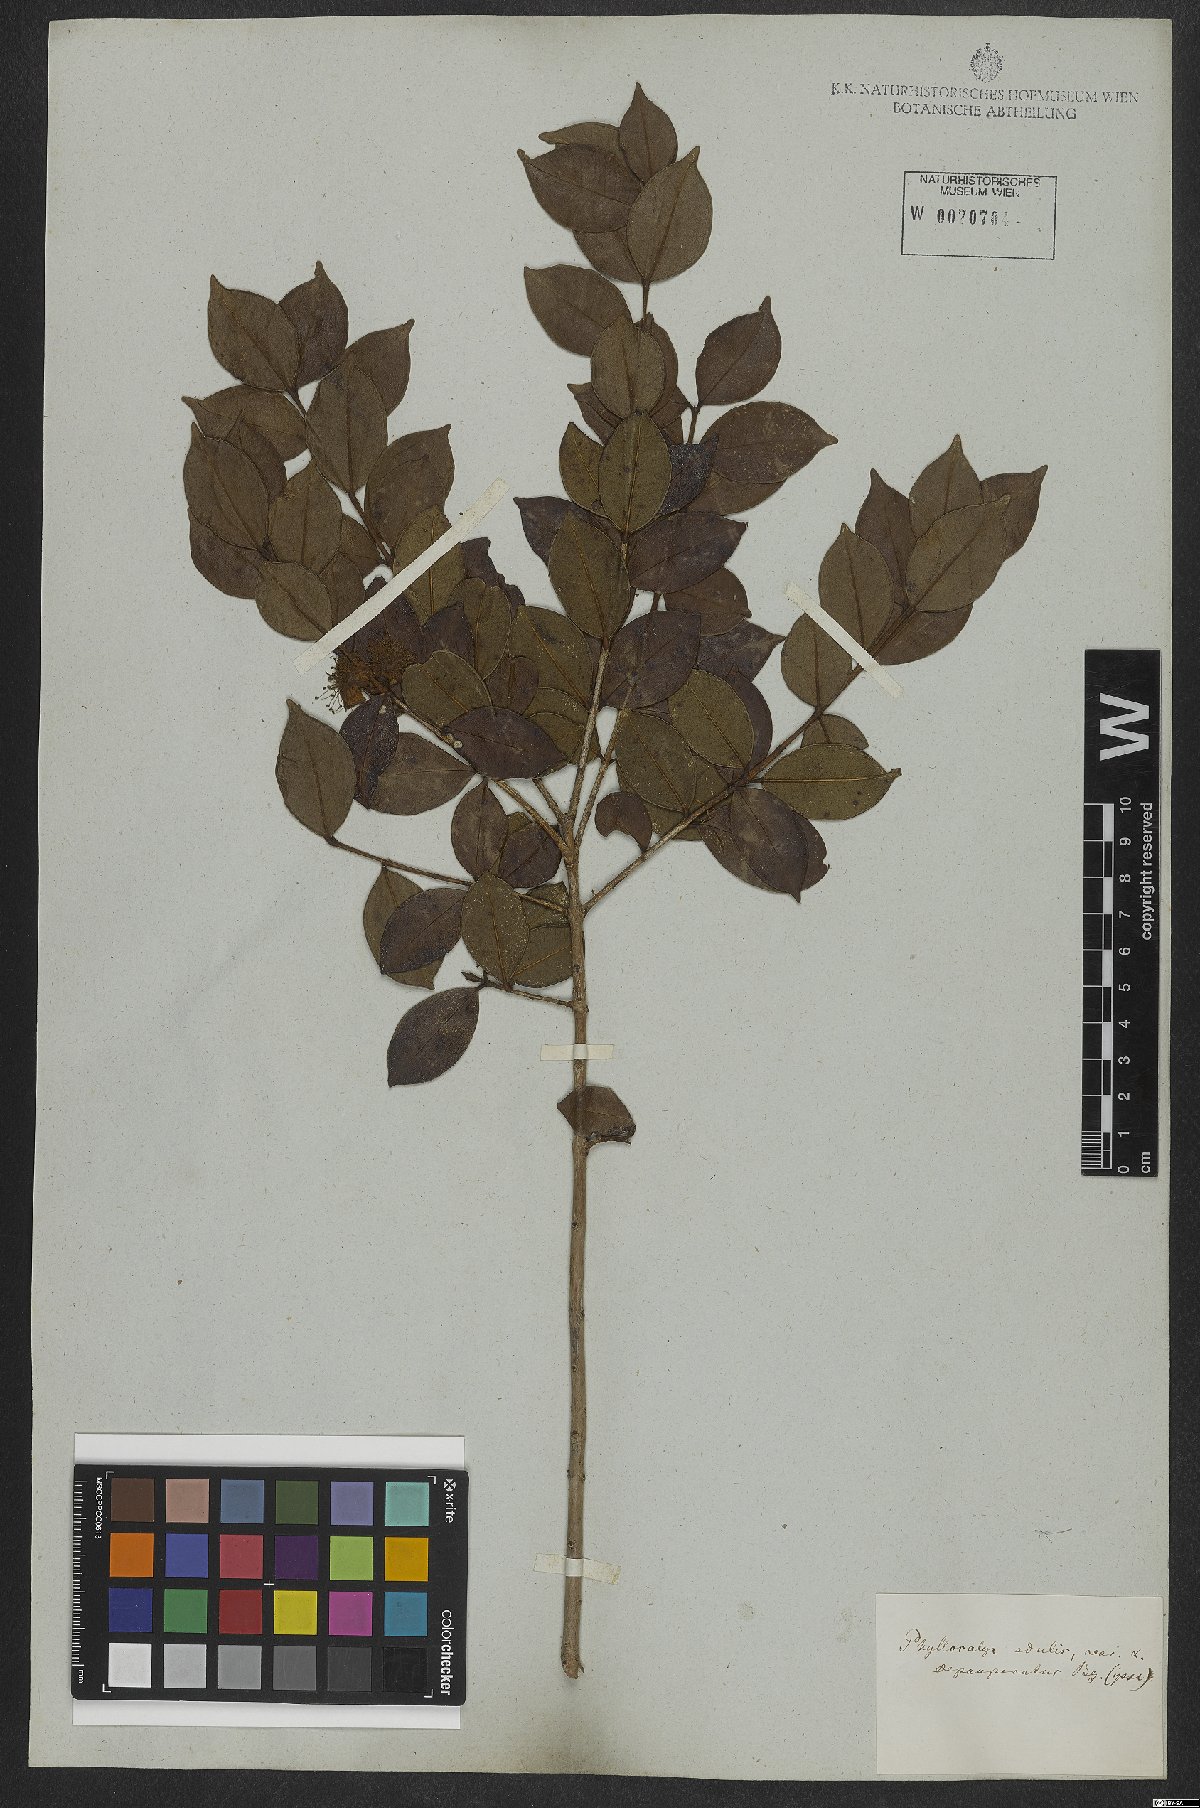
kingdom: Plantae
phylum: Tracheophyta
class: Magnoliopsida
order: Myrtales
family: Myrtaceae
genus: Eugenia
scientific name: Eugenia selloi
